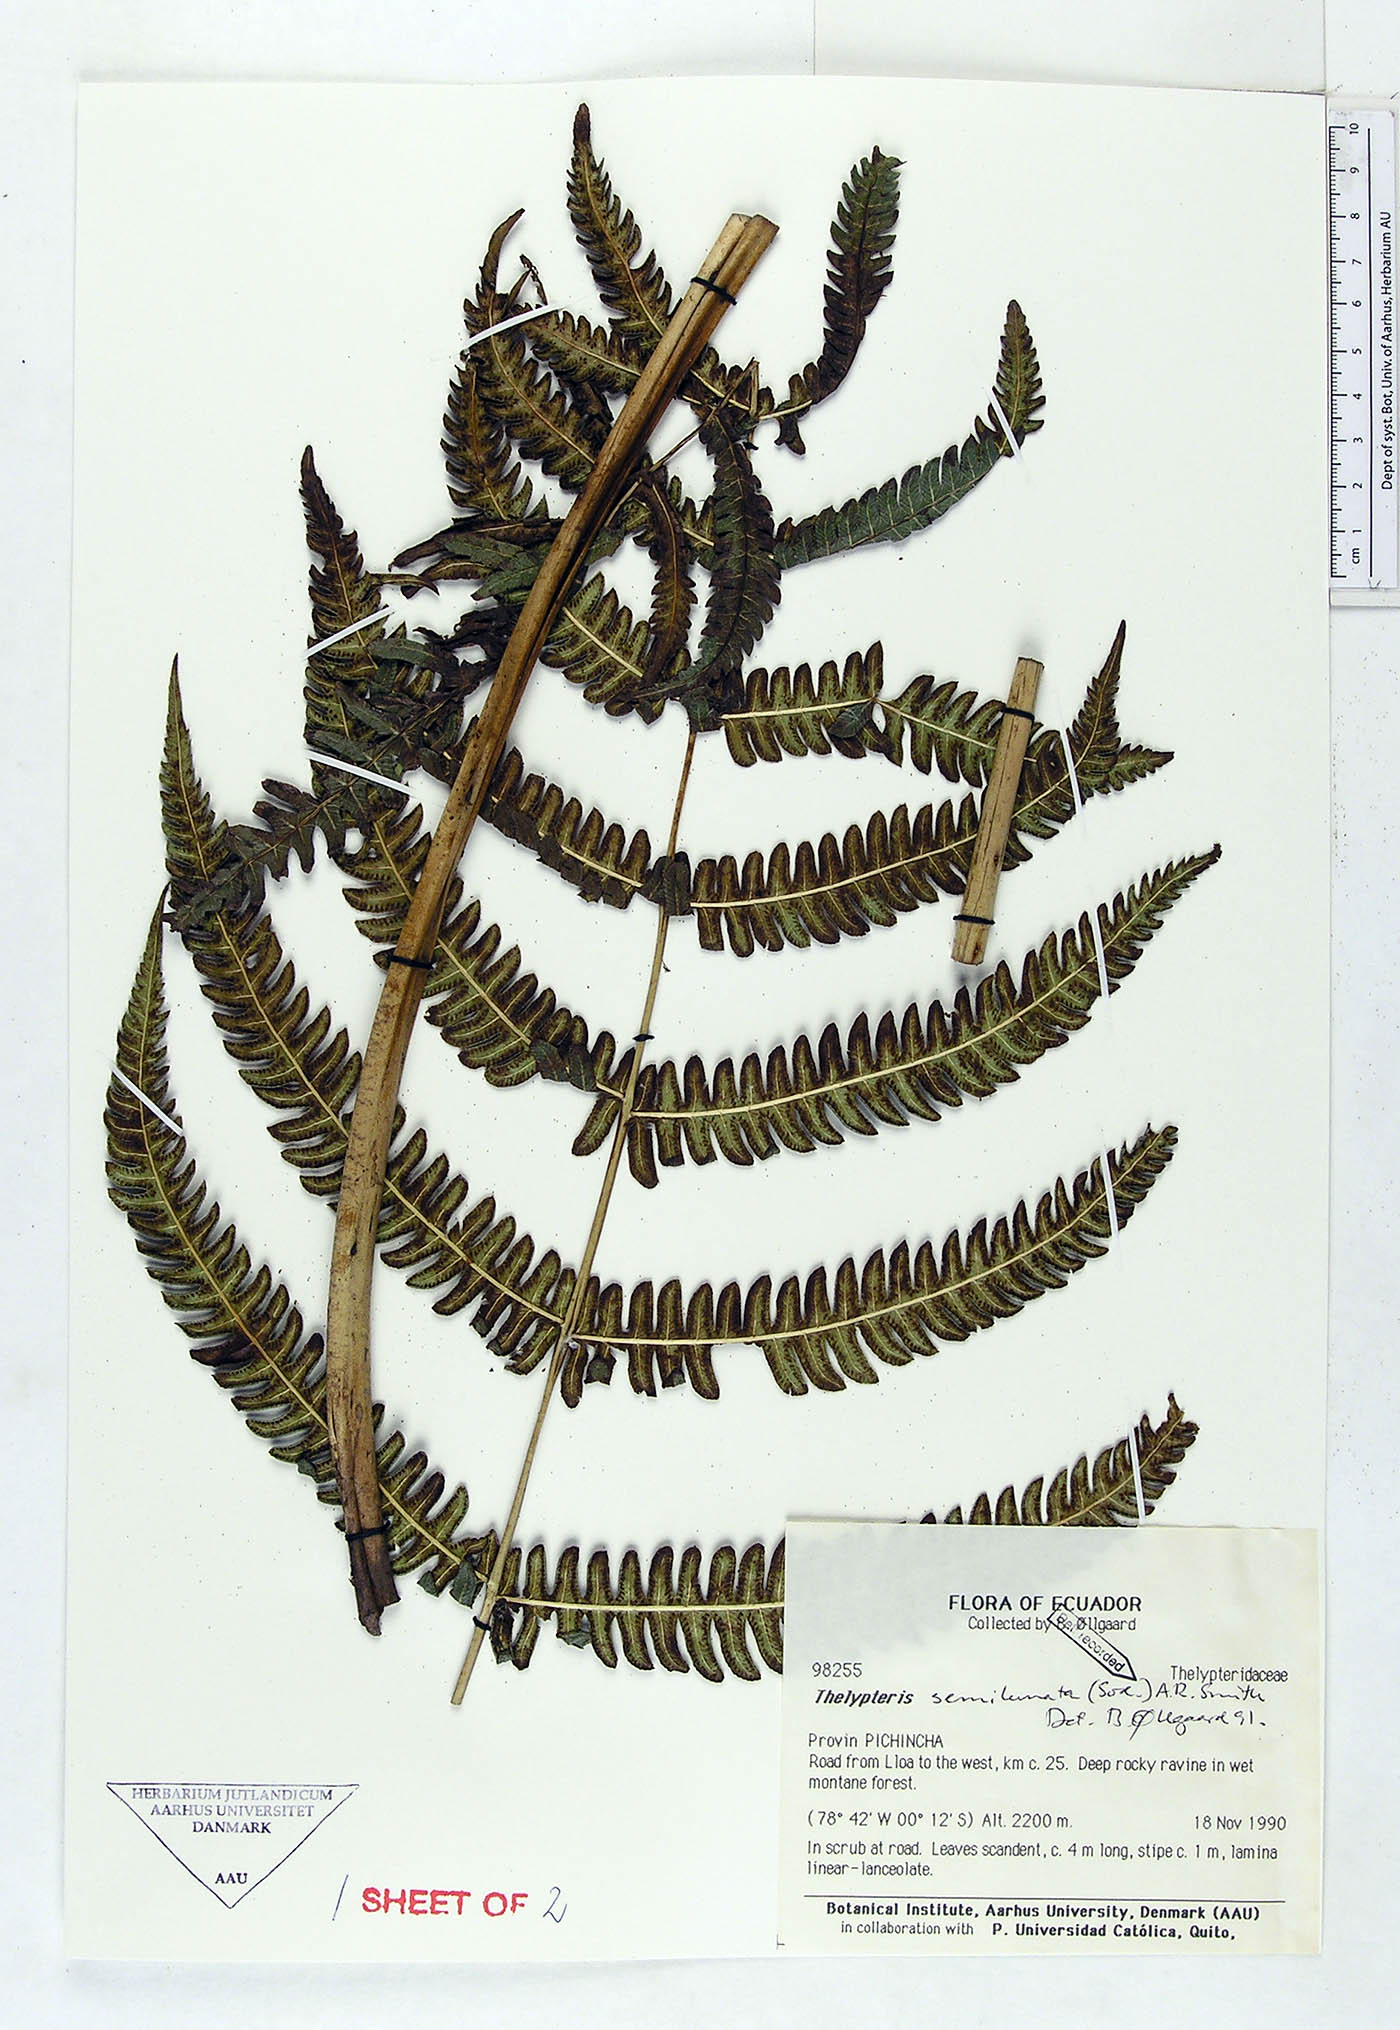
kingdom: Plantae
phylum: Tracheophyta
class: Polypodiopsida
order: Polypodiales
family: Thelypteridaceae
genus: Amauropelta
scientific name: Amauropelta semilunata
